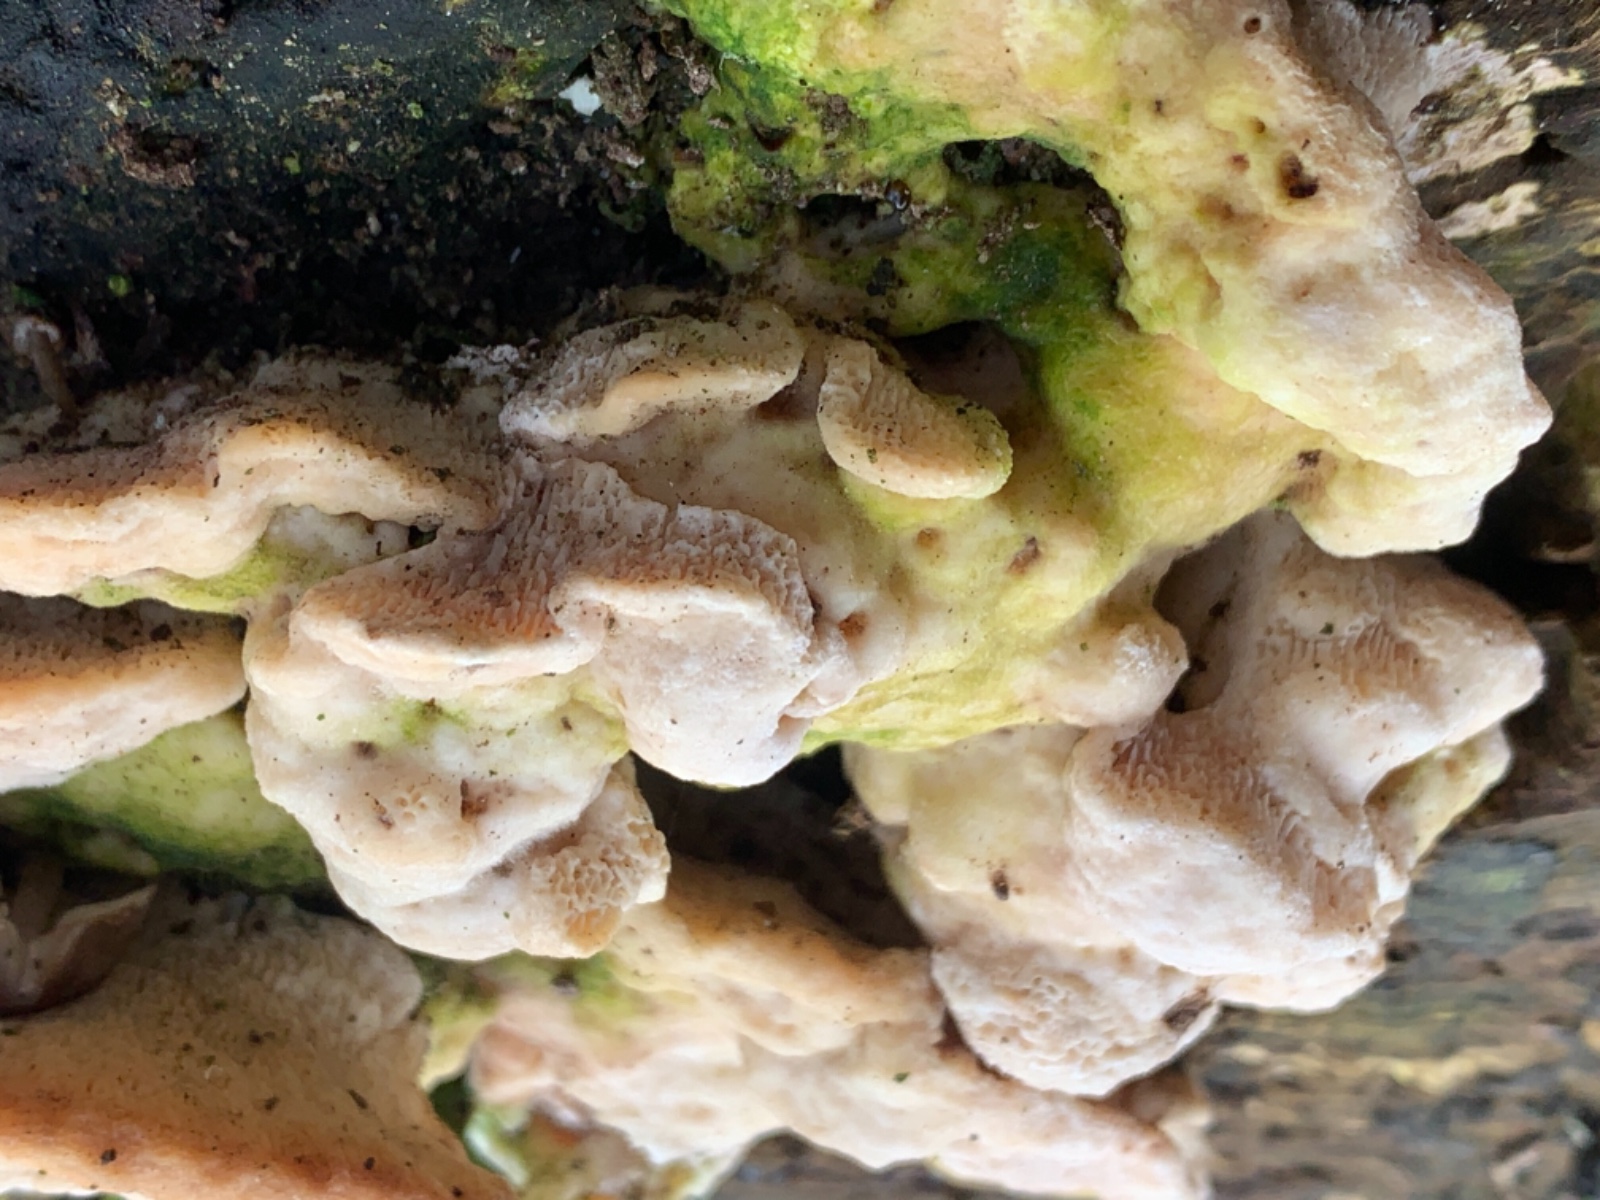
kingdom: Fungi
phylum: Basidiomycota
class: Agaricomycetes
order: Polyporales
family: Polyporaceae
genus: Trametes
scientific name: Trametes gibbosa
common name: puklet læderporesvamp
